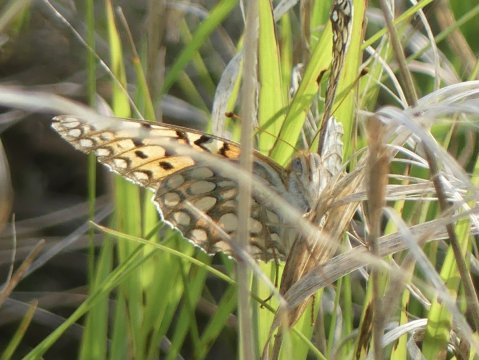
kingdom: Animalia
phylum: Arthropoda
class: Insecta
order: Lepidoptera
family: Nymphalidae
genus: Speyeria
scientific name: Speyeria edwardsii
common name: Edwards' Fritillary
